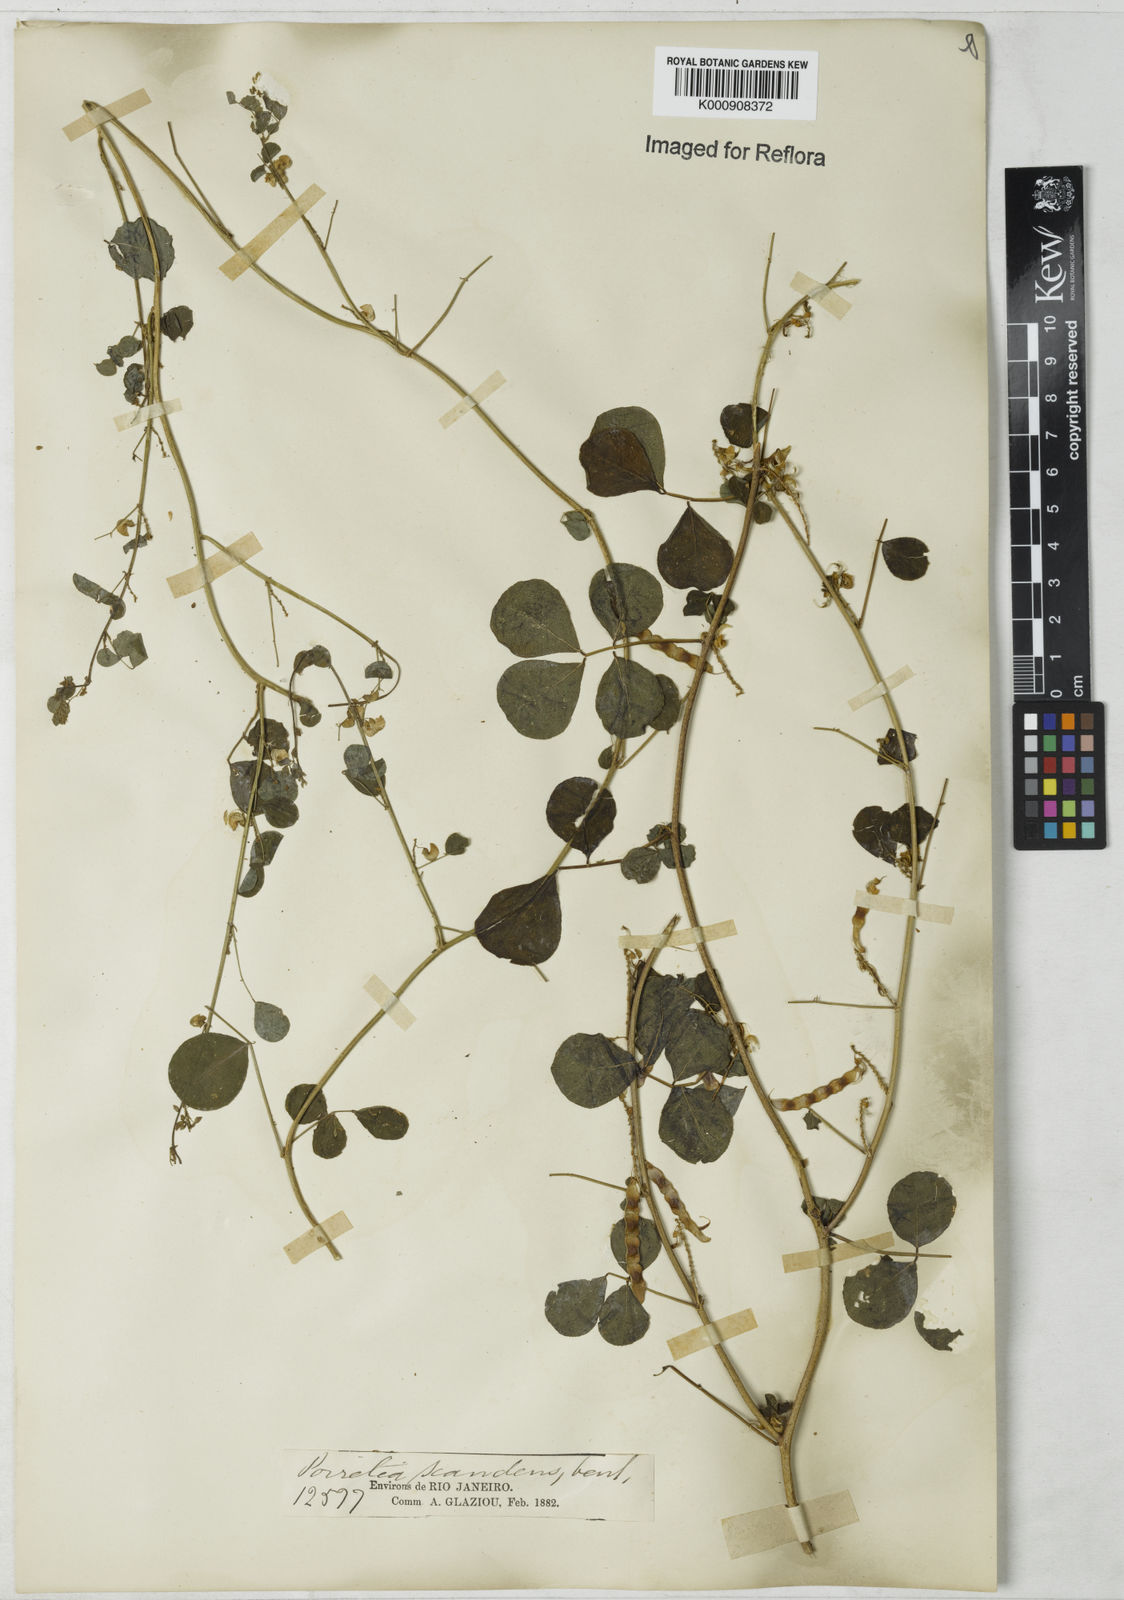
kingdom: Plantae
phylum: Tracheophyta
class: Magnoliopsida
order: Fabales
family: Fabaceae
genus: Poiretia
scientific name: Poiretia punctata
